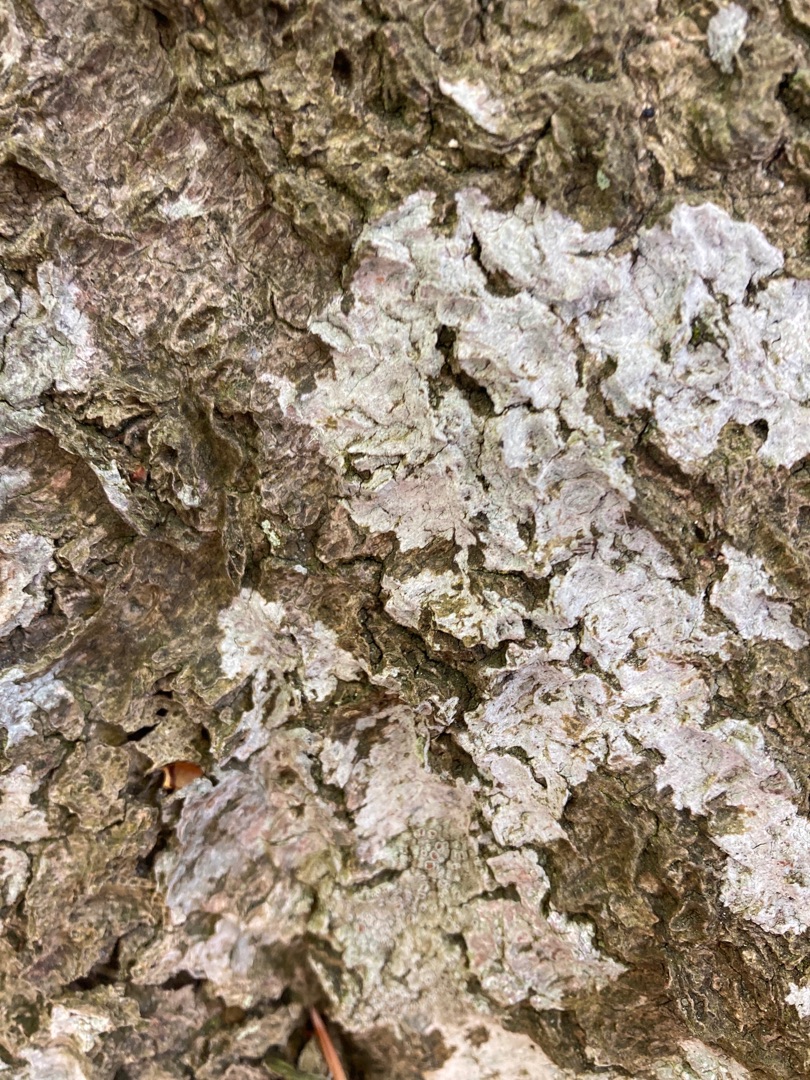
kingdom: Fungi
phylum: Ascomycota
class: Lecanoromycetes
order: Ostropales
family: Phlyctidaceae
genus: Phlyctis
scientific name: Phlyctis argena
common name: Almindelig sølvlav
